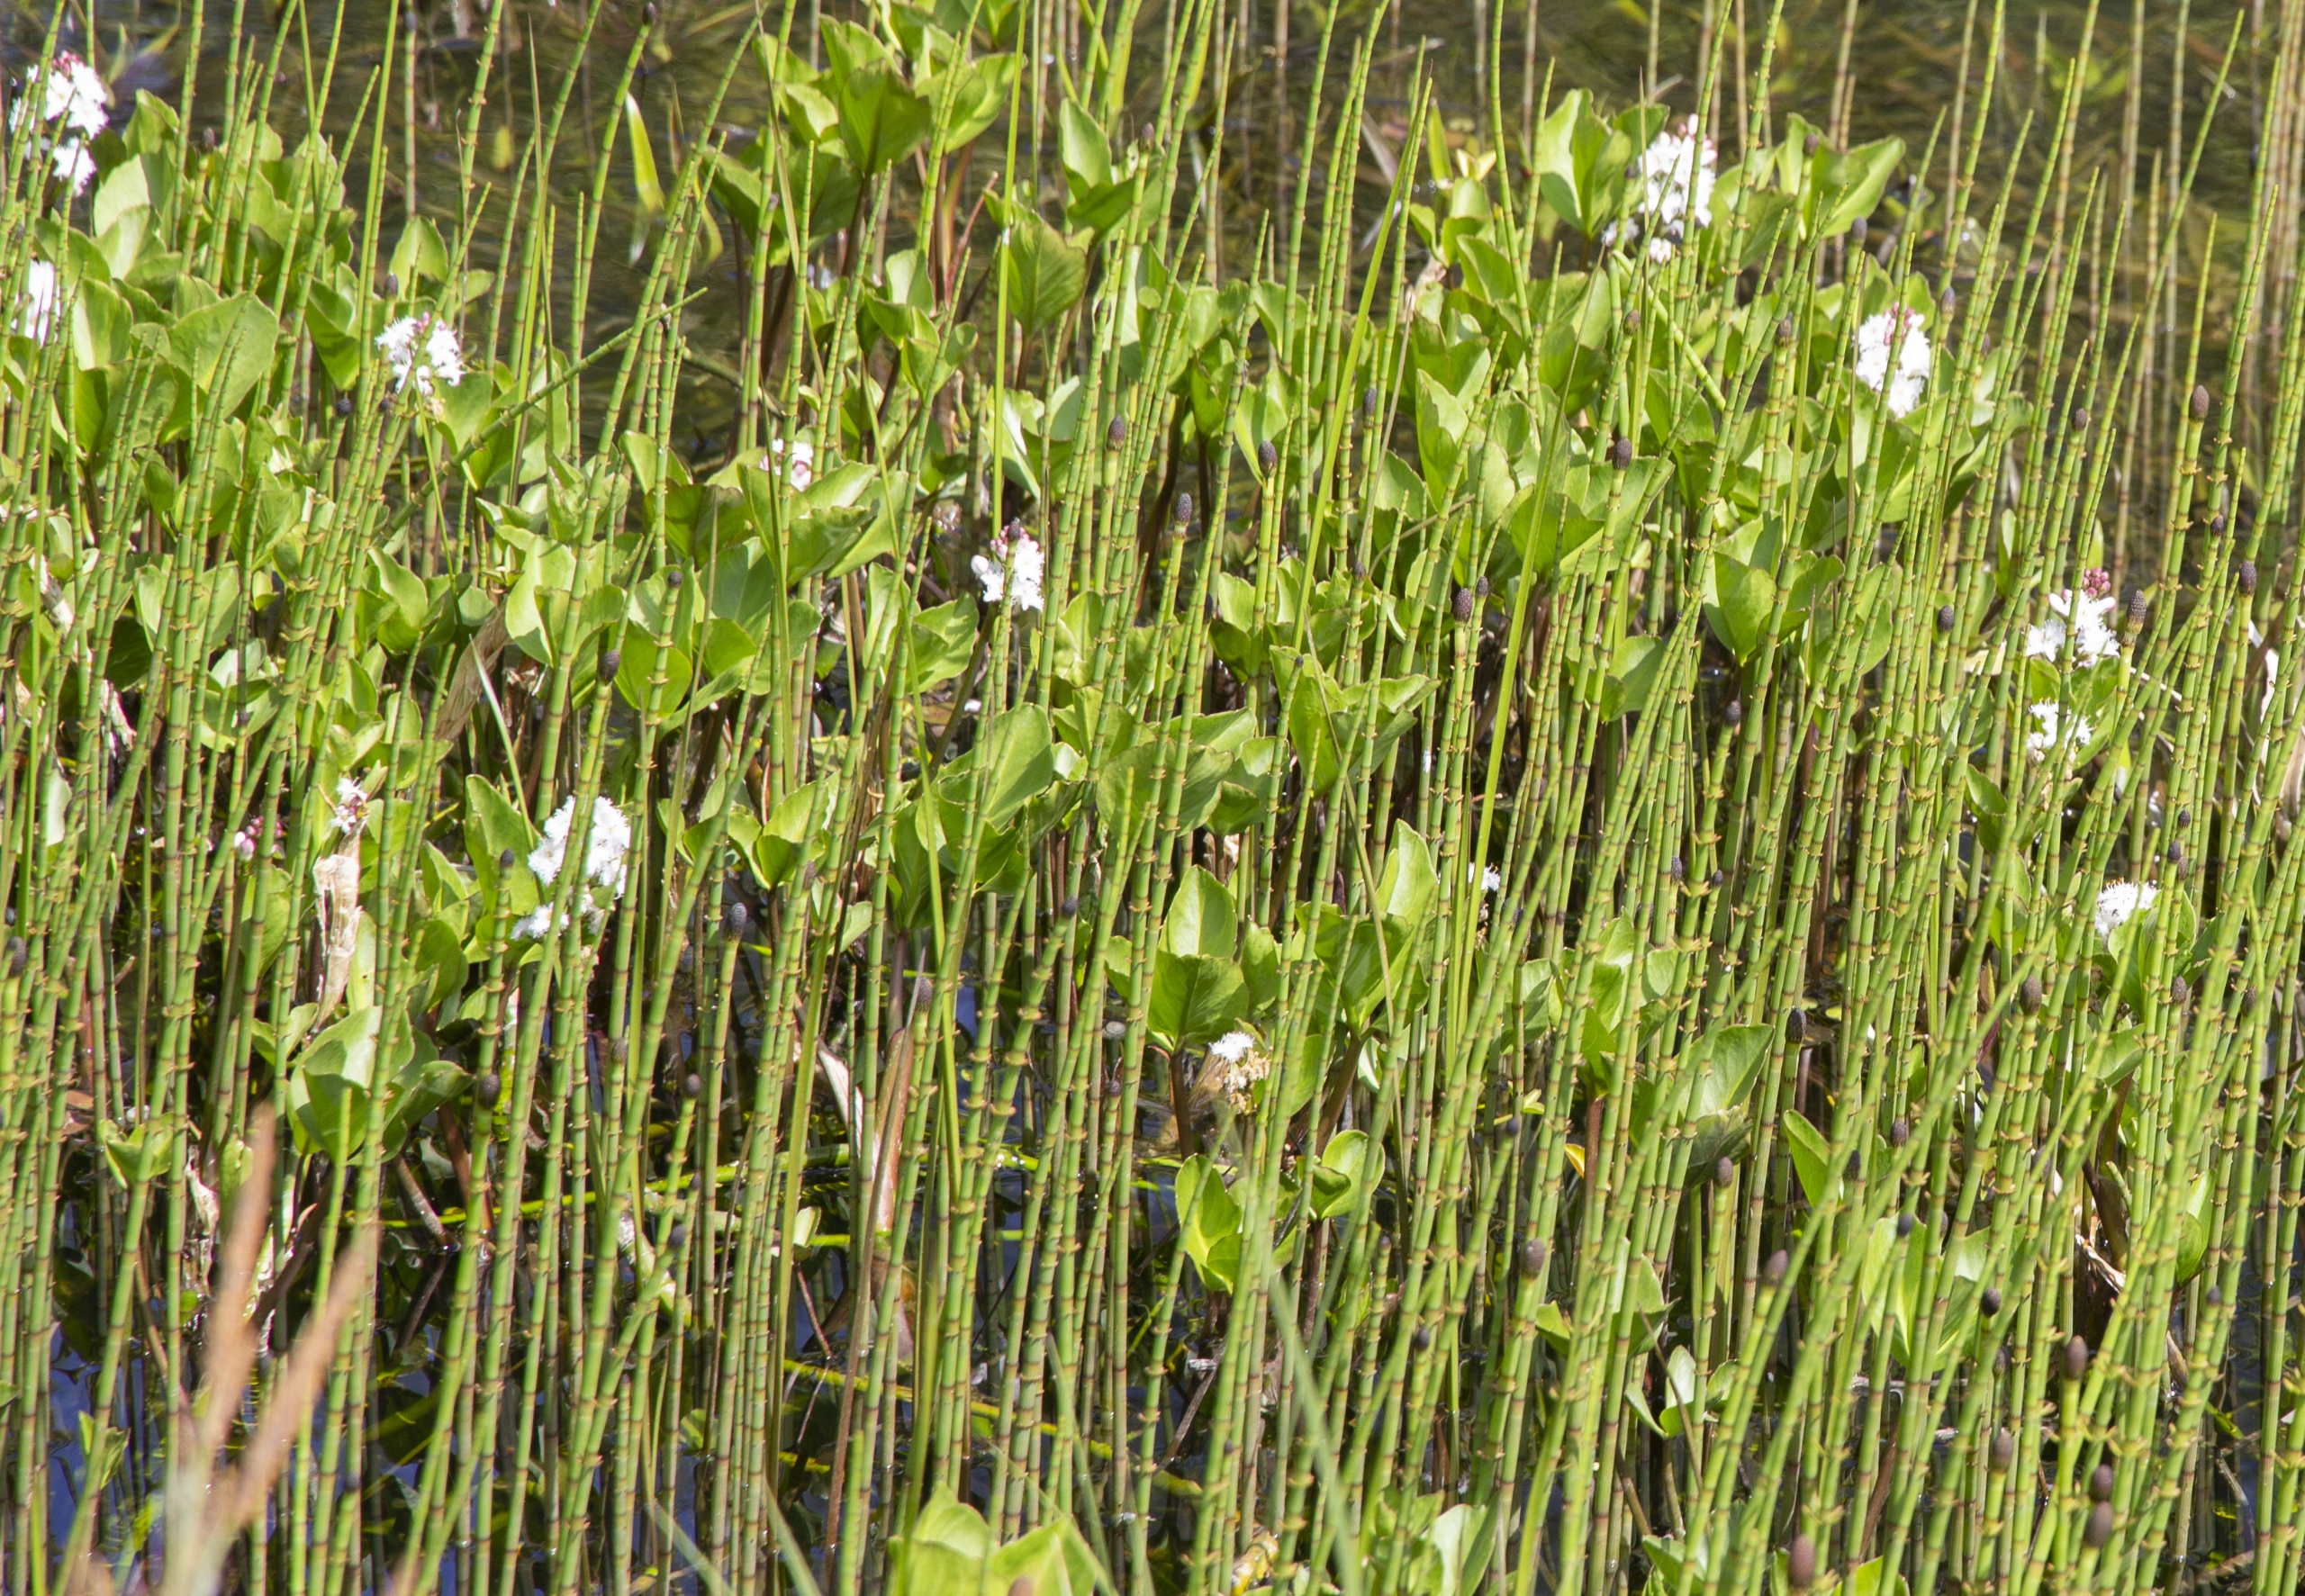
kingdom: Plantae
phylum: Tracheophyta
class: Magnoliopsida
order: Asterales
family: Menyanthaceae
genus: Menyanthes
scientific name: Menyanthes trifoliata
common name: Bukkeblad
